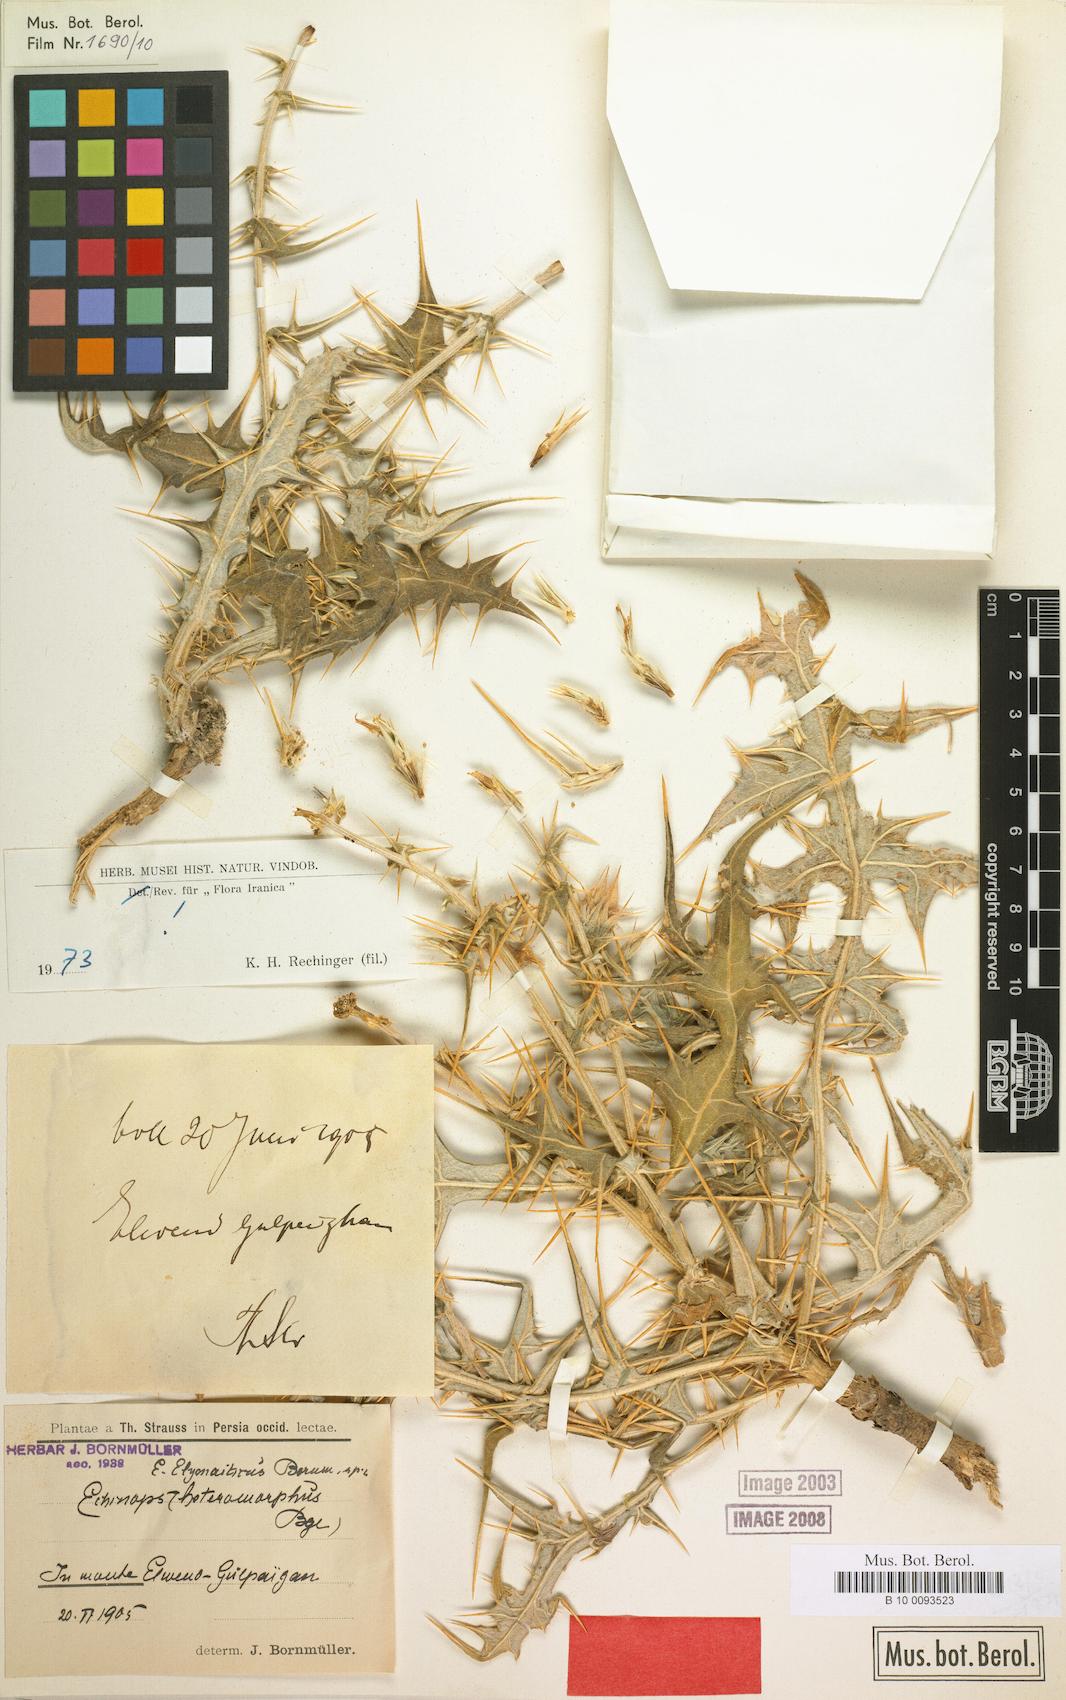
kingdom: Plantae
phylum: Tracheophyta
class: Magnoliopsida
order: Asterales
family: Asteraceae
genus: Echinops
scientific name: Echinops elymaiticus
